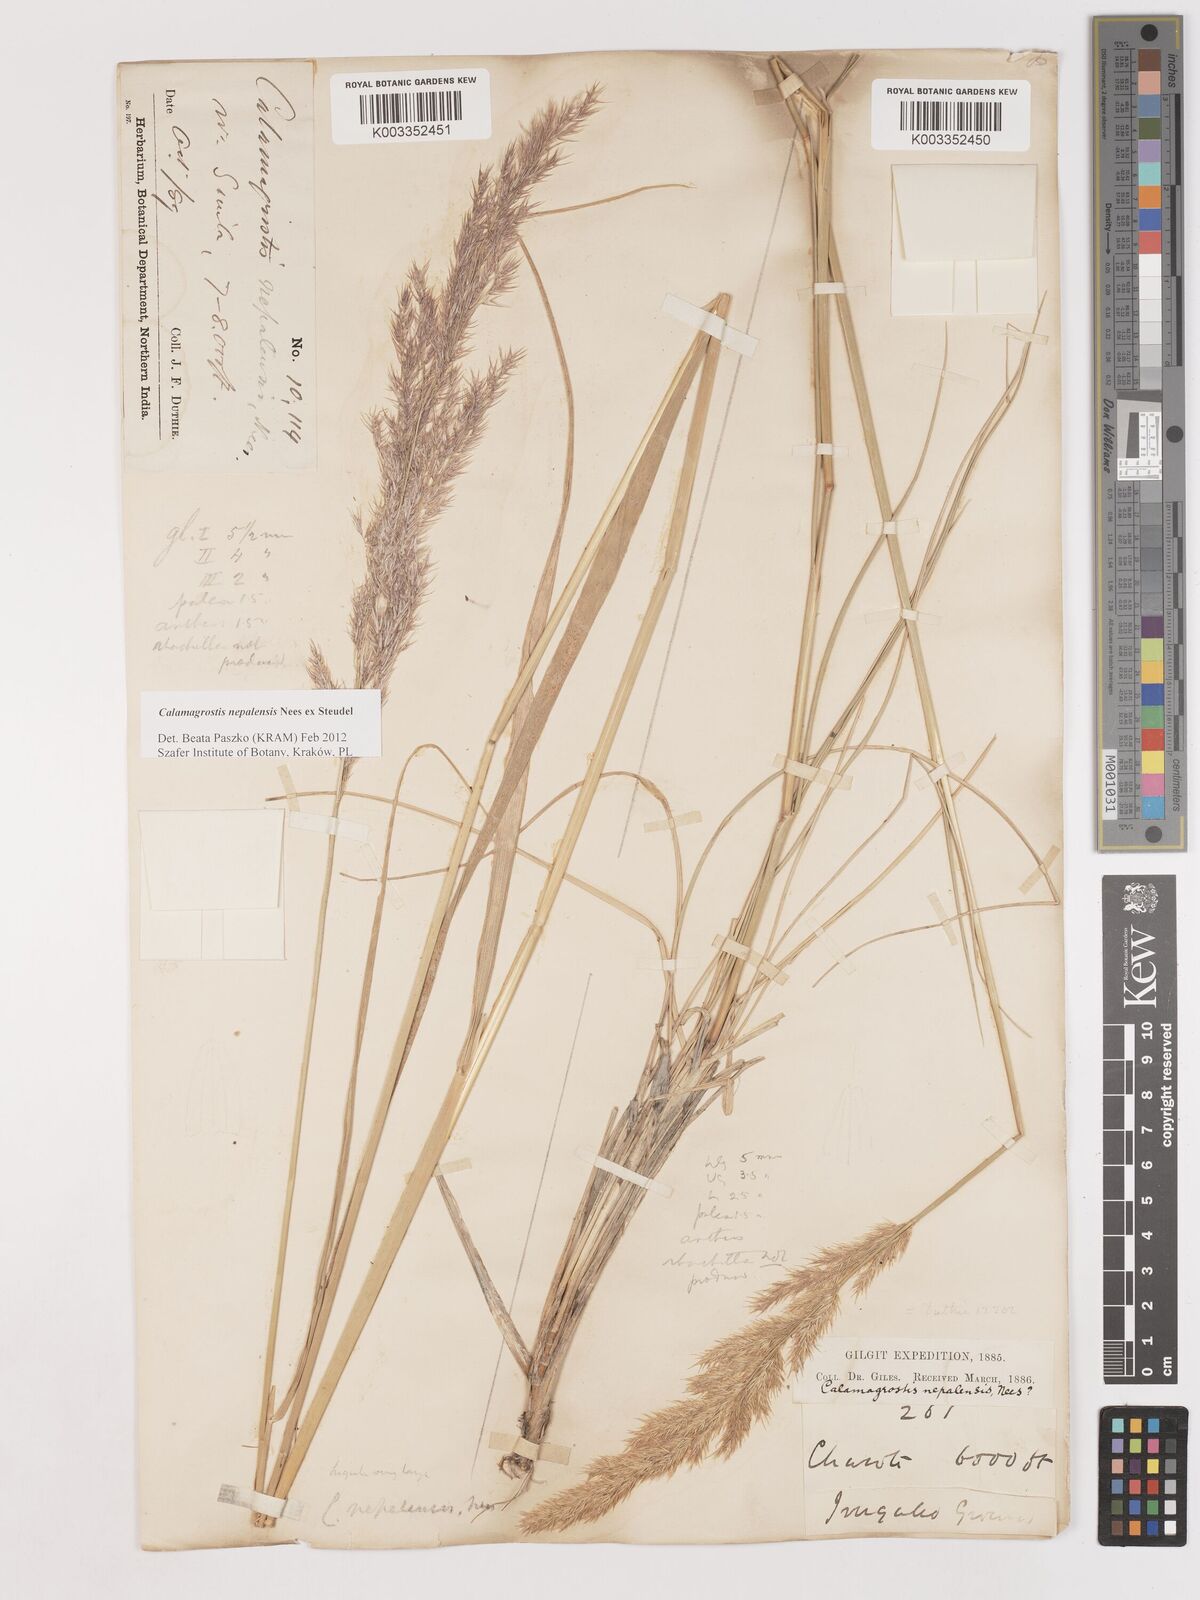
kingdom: Plantae
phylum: Tracheophyta
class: Liliopsida
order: Poales
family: Poaceae
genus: Calamagrostis
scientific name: Calamagrostis pseudophragmites
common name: Coastal small-reed
